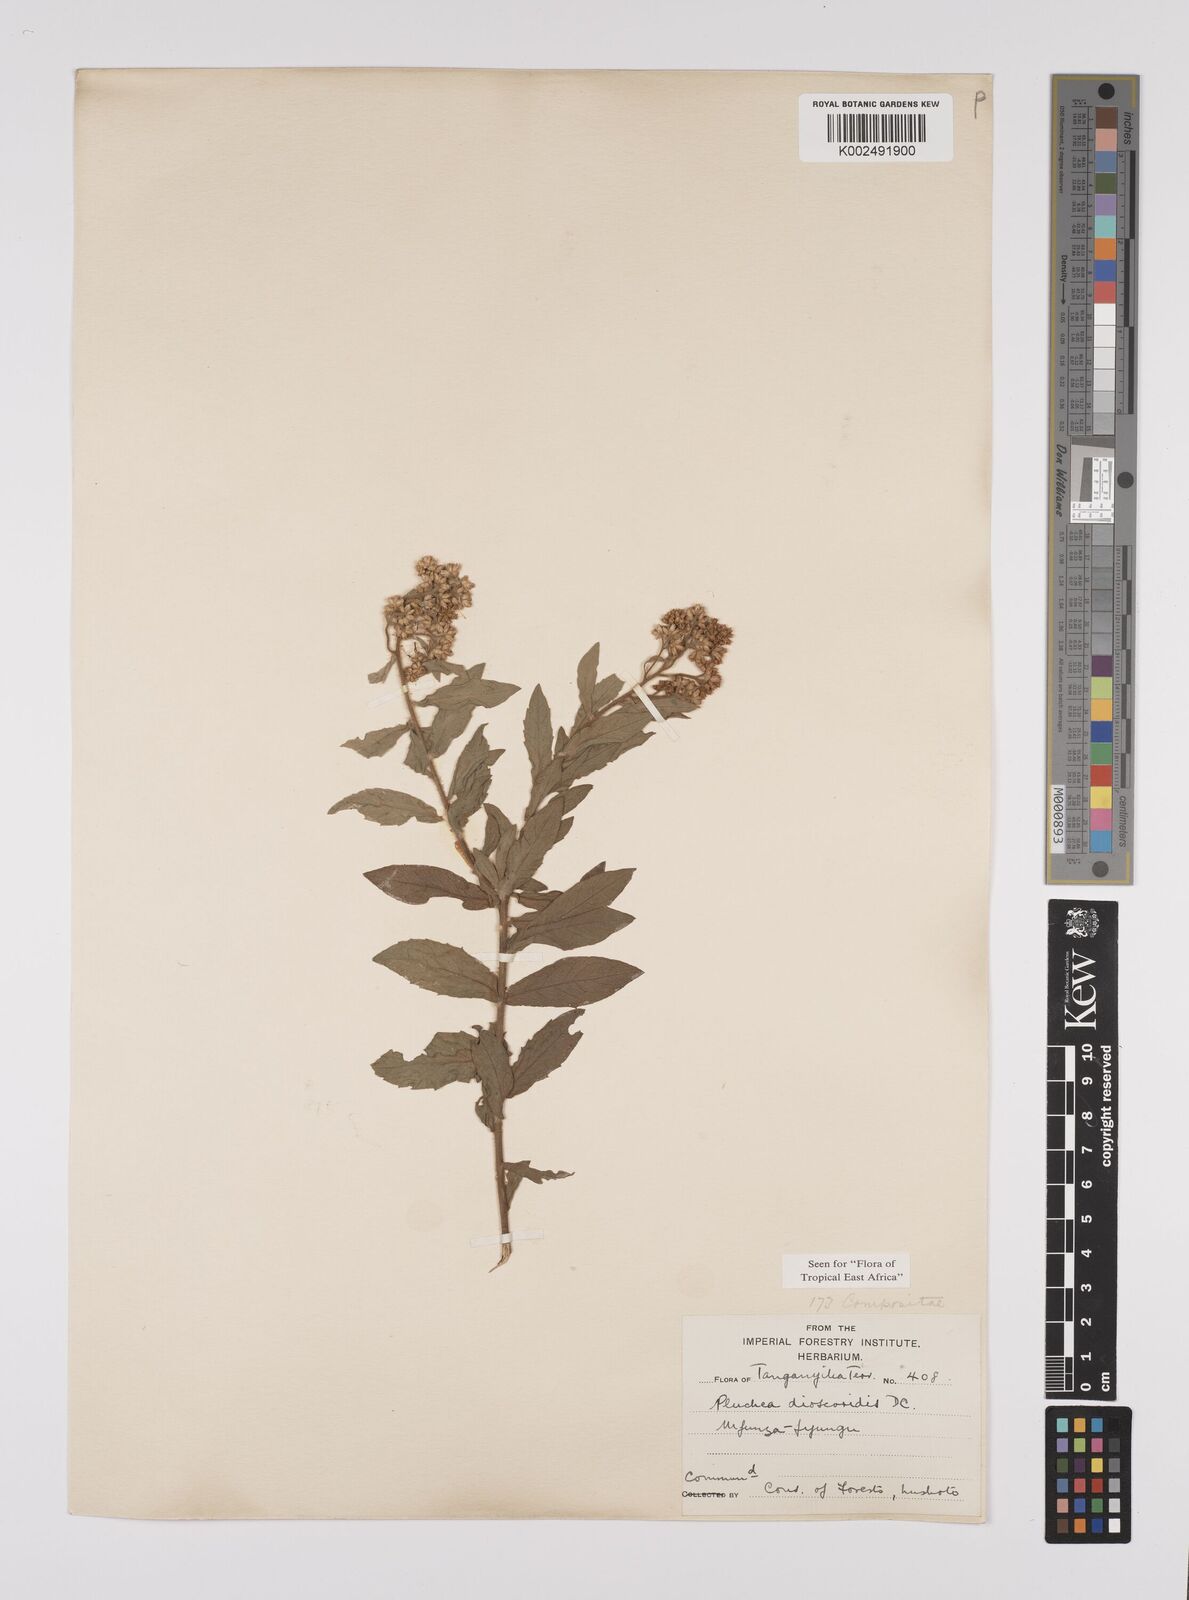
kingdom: Plantae
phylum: Tracheophyta
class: Magnoliopsida
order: Asterales
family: Asteraceae
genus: Pluchea
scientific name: Pluchea dioscoridis
